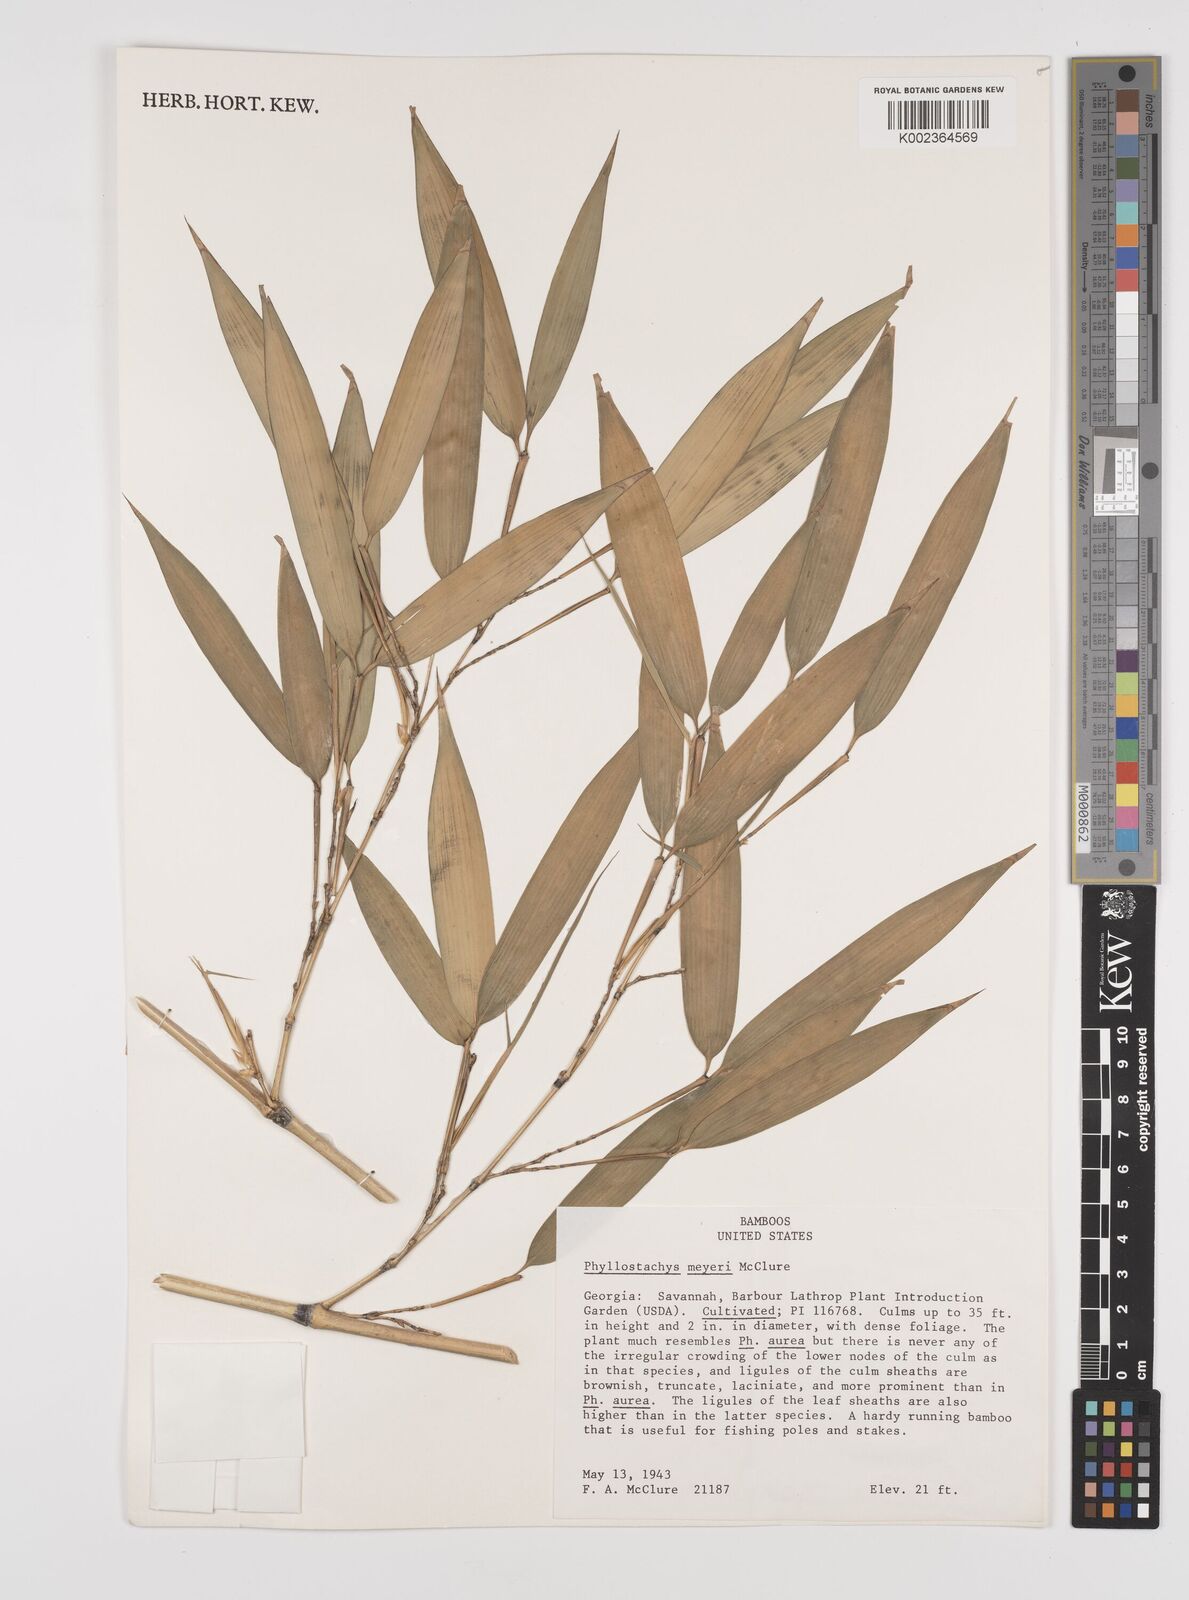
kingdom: Plantae
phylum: Tracheophyta
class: Liliopsida
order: Poales
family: Poaceae
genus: Phyllostachys
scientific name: Phyllostachys meyeri
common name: Meyer's bamboo
